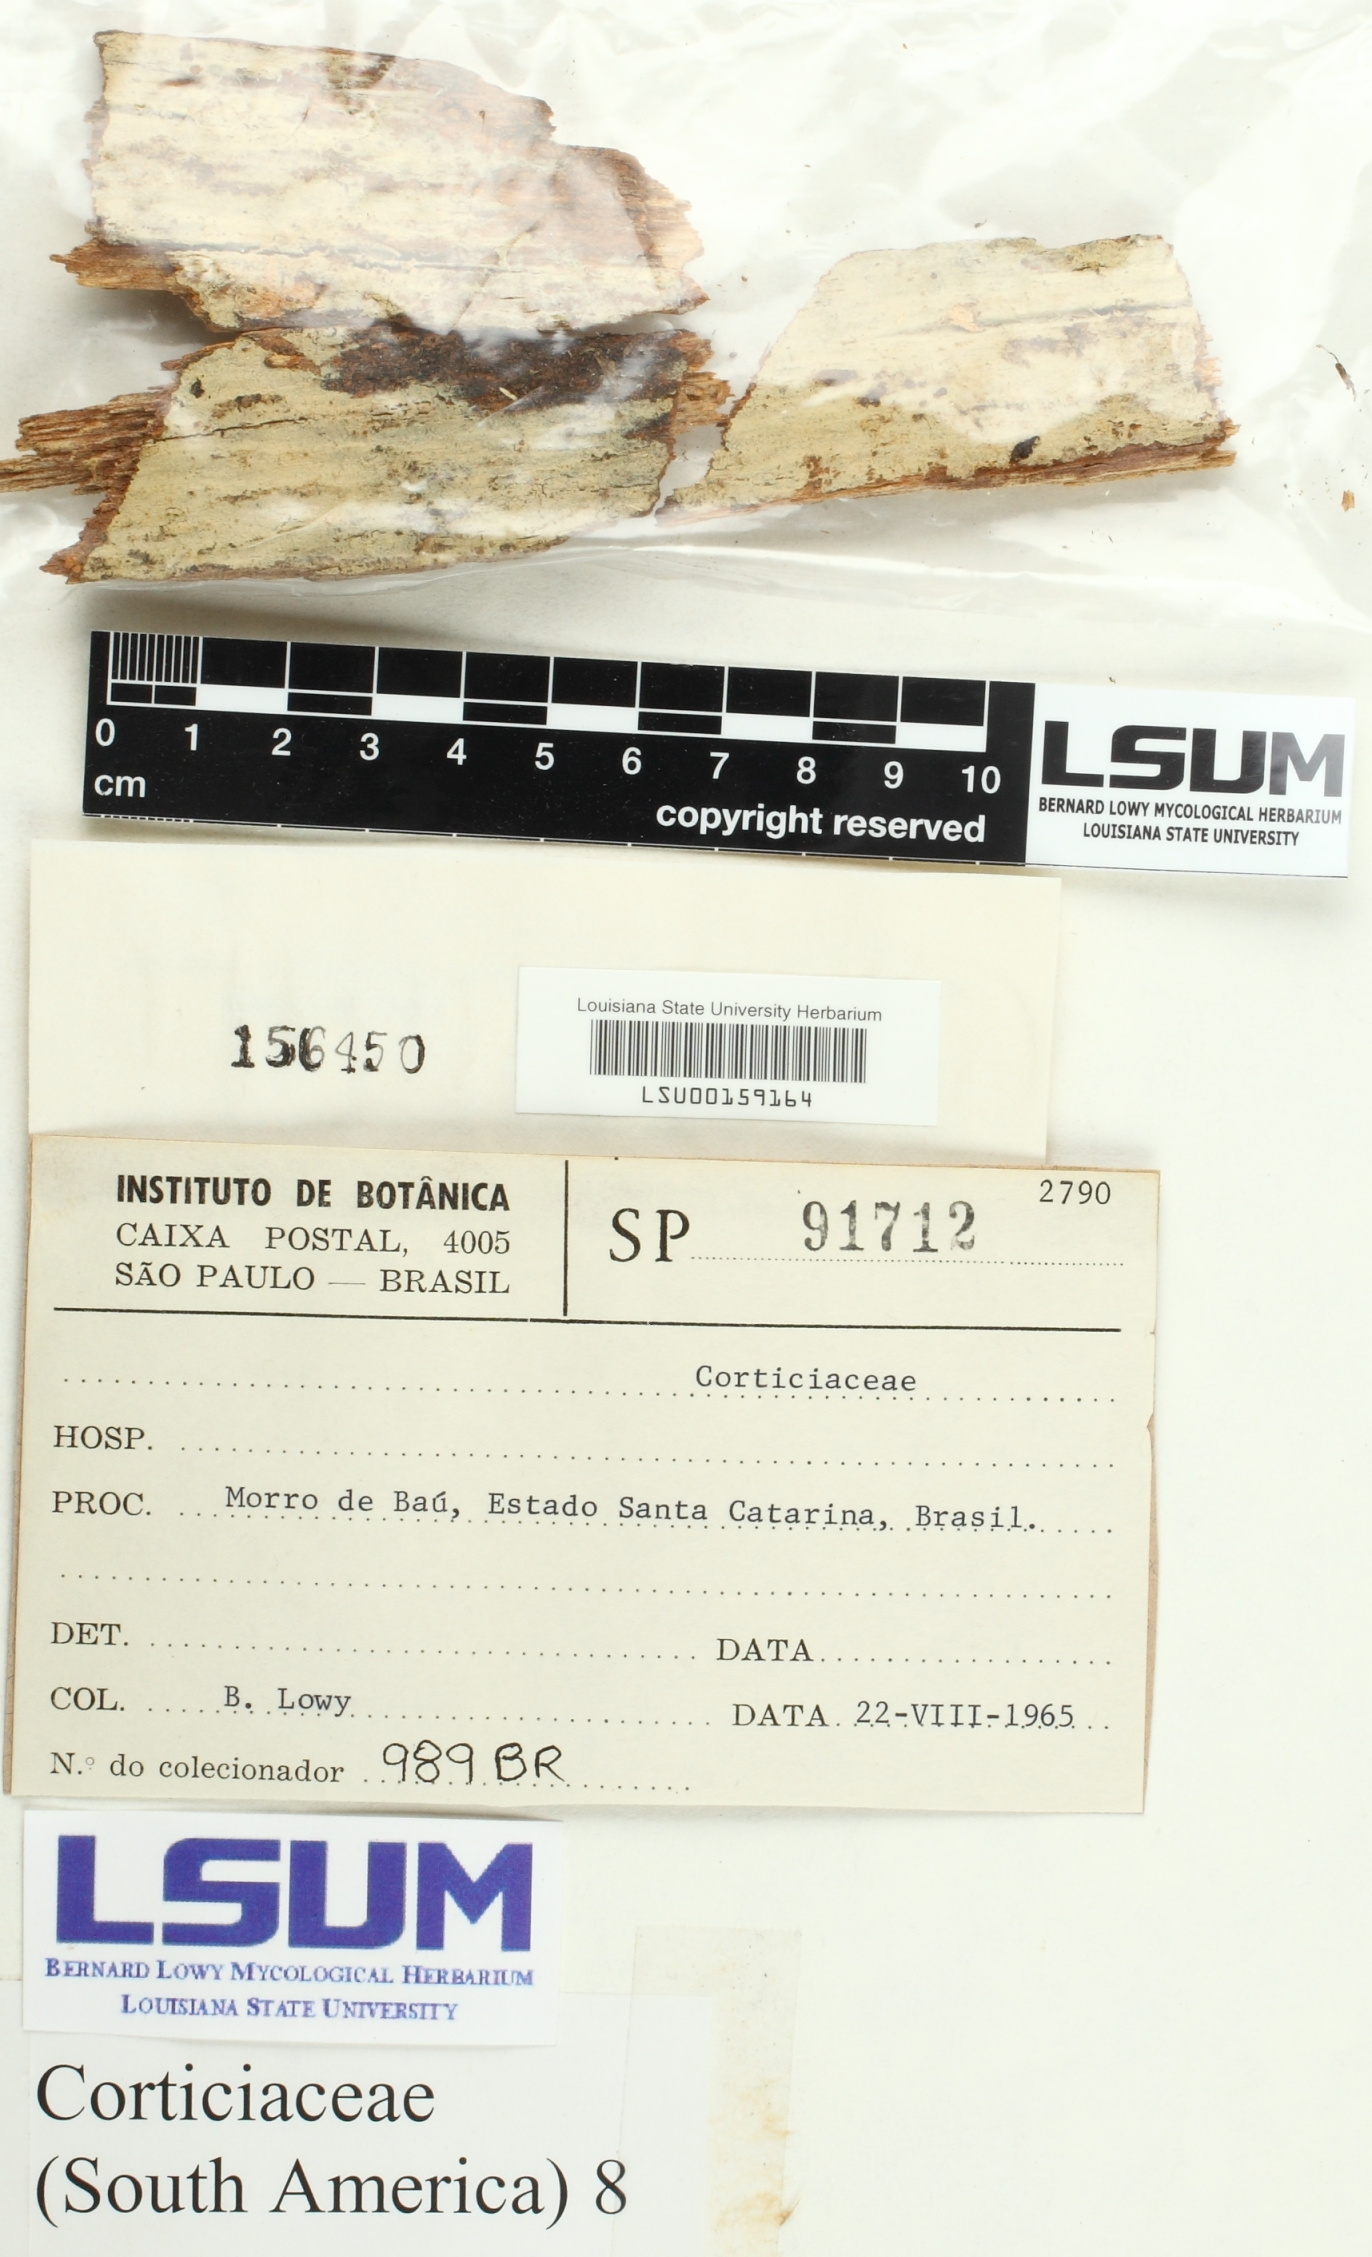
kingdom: Fungi
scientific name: Fungi
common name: Fungi
